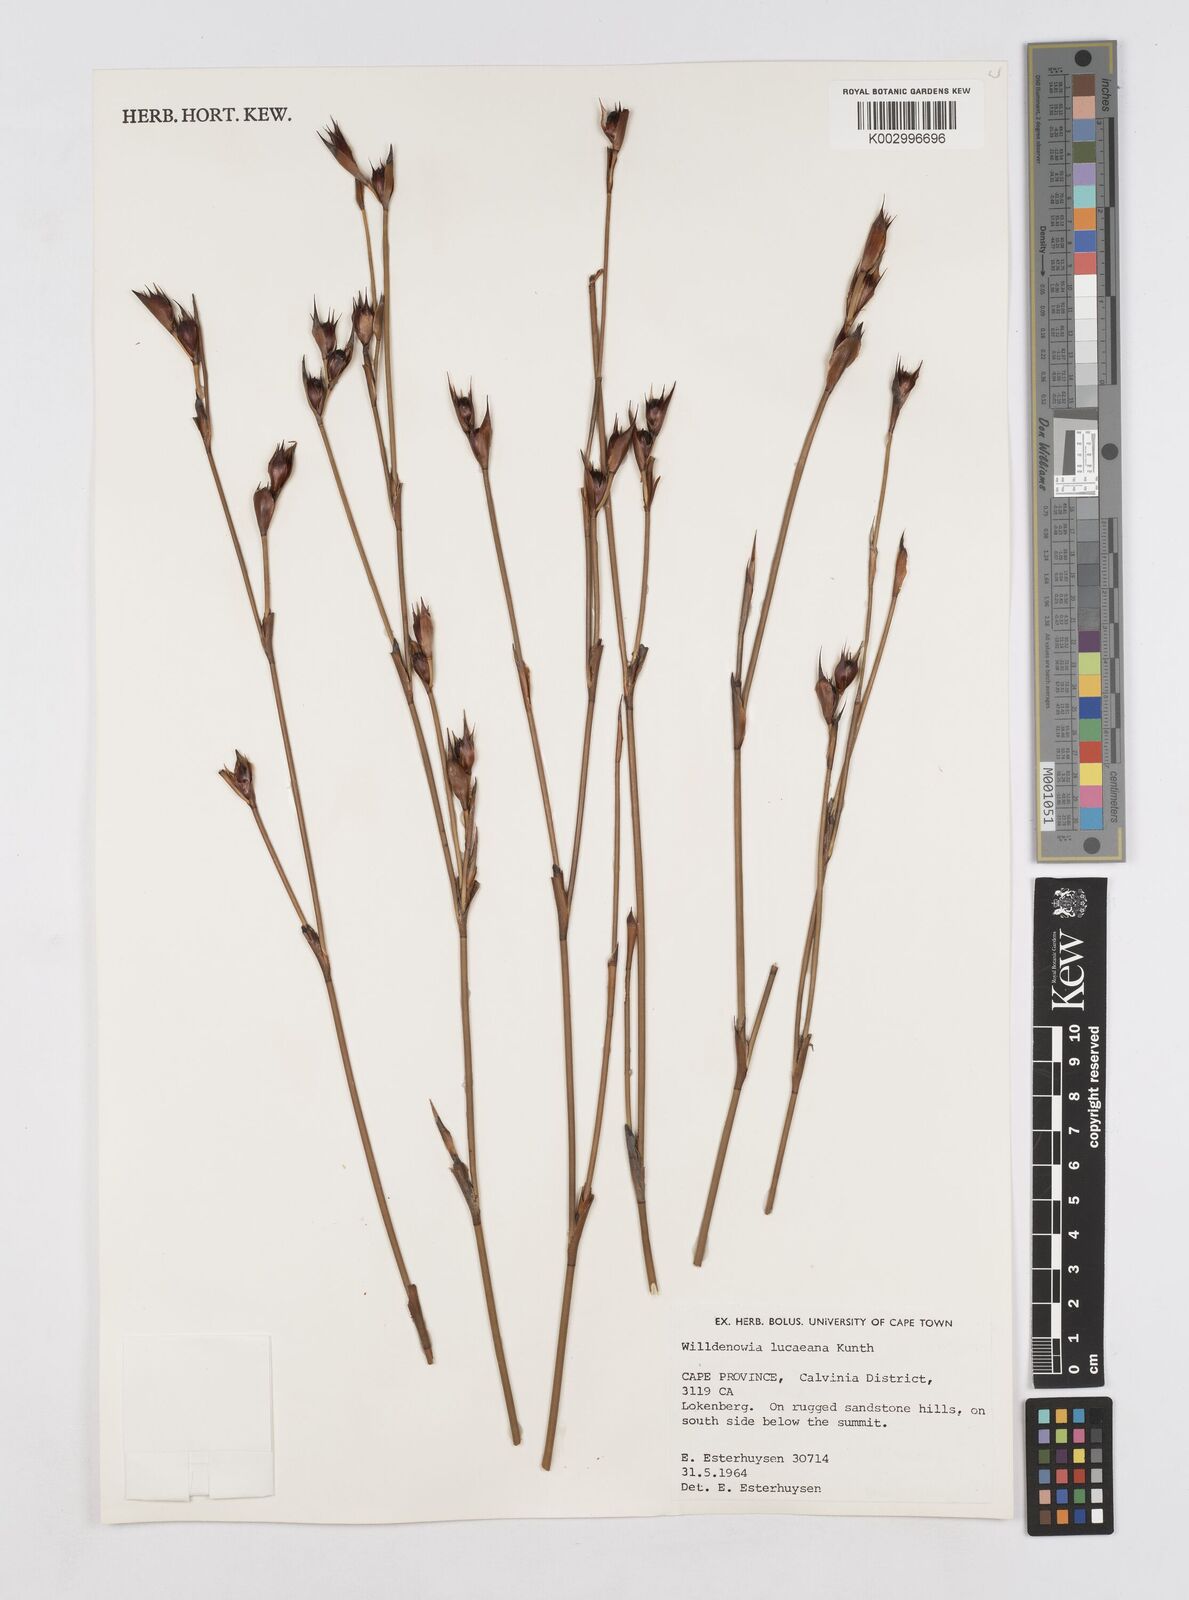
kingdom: Plantae
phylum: Tracheophyta
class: Liliopsida
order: Poales
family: Restionaceae
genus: Willdenowia
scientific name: Willdenowia glomerata
